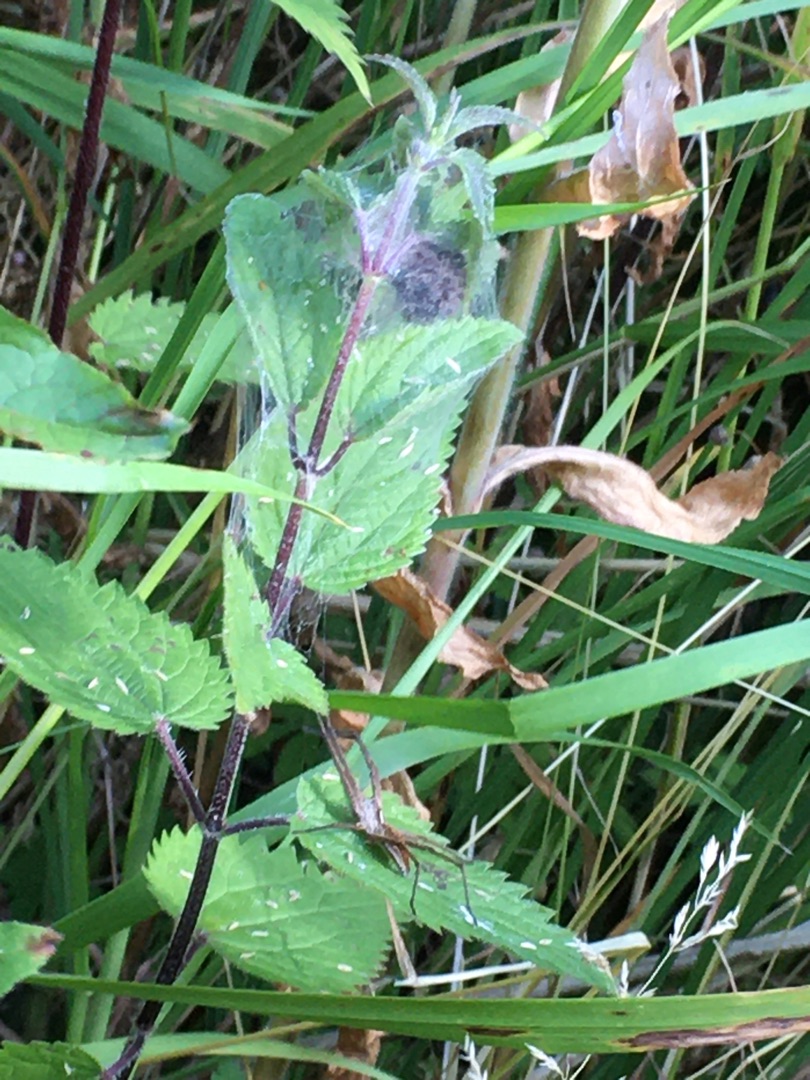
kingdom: Animalia
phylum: Arthropoda
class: Arachnida
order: Araneae
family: Pisauridae
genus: Pisaura
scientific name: Pisaura mirabilis
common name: Almindelig rovedderkop
